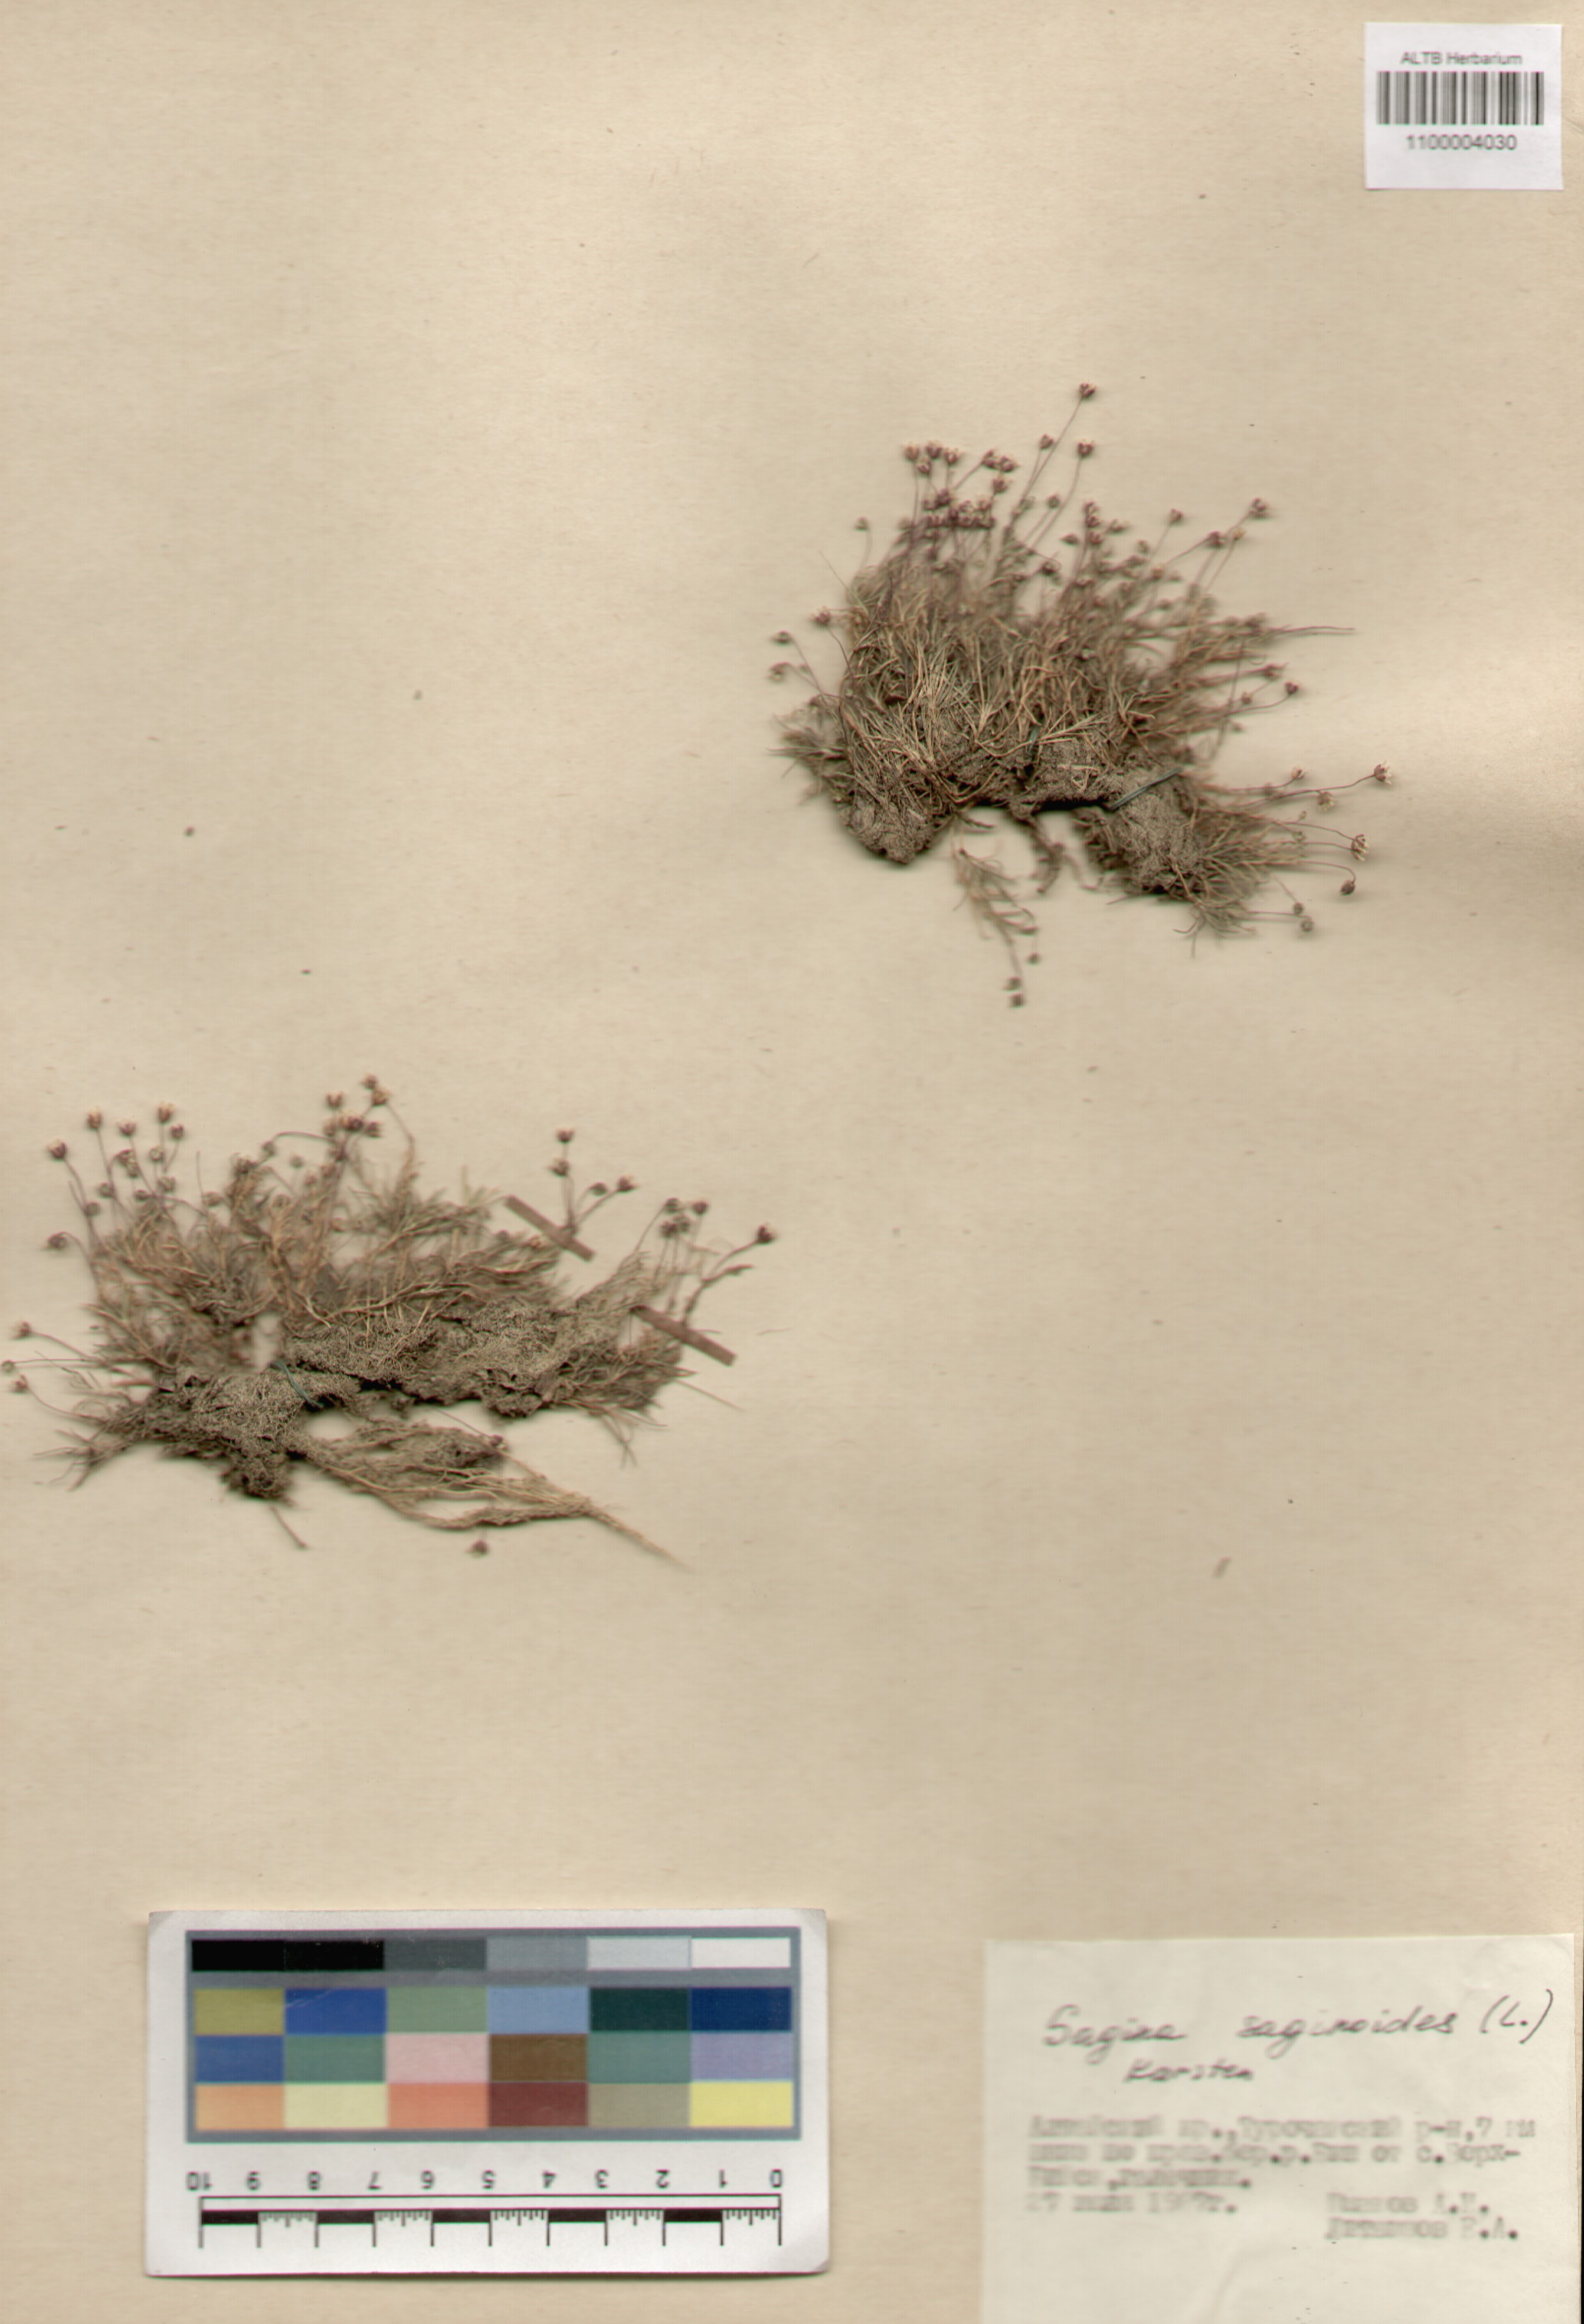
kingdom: Plantae
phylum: Tracheophyta
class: Magnoliopsida
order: Caryophyllales
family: Caryophyllaceae
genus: Sagina
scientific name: Sagina saginoides
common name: Alpine pearlwort
